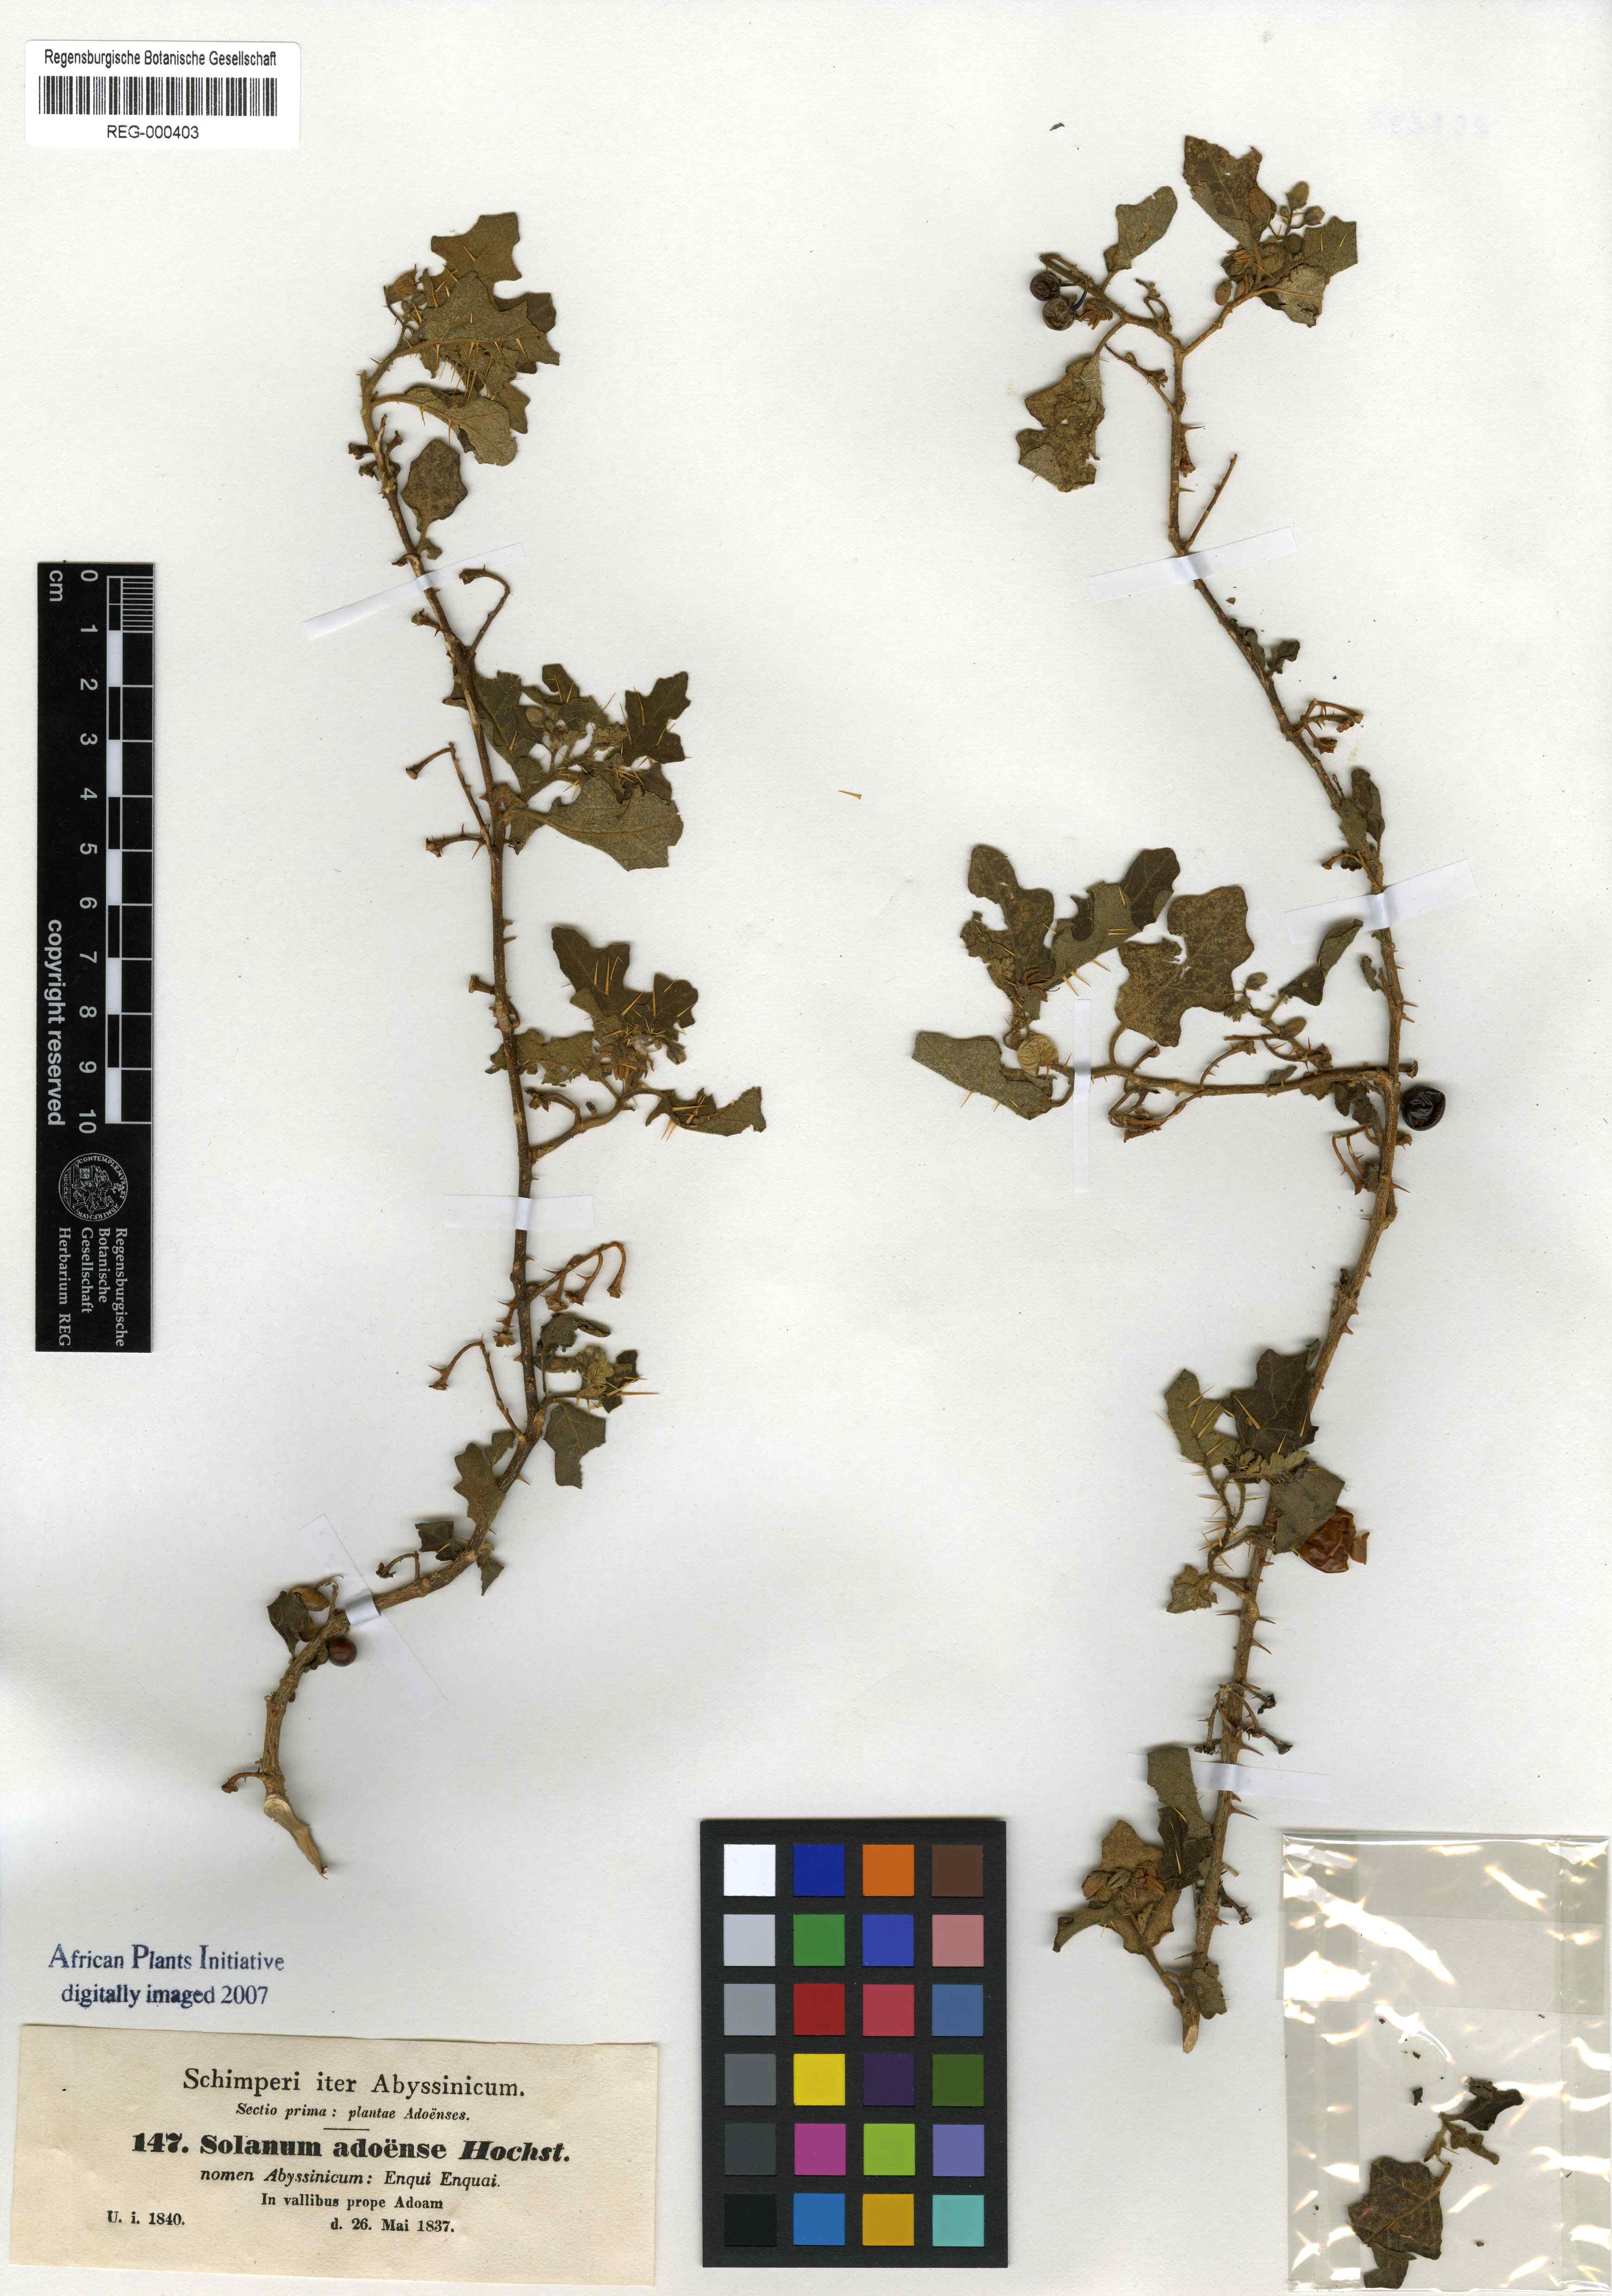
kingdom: Plantae
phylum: Tracheophyta
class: Magnoliopsida
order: Solanales
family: Solanaceae
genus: Solanum
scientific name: Solanum adoense
